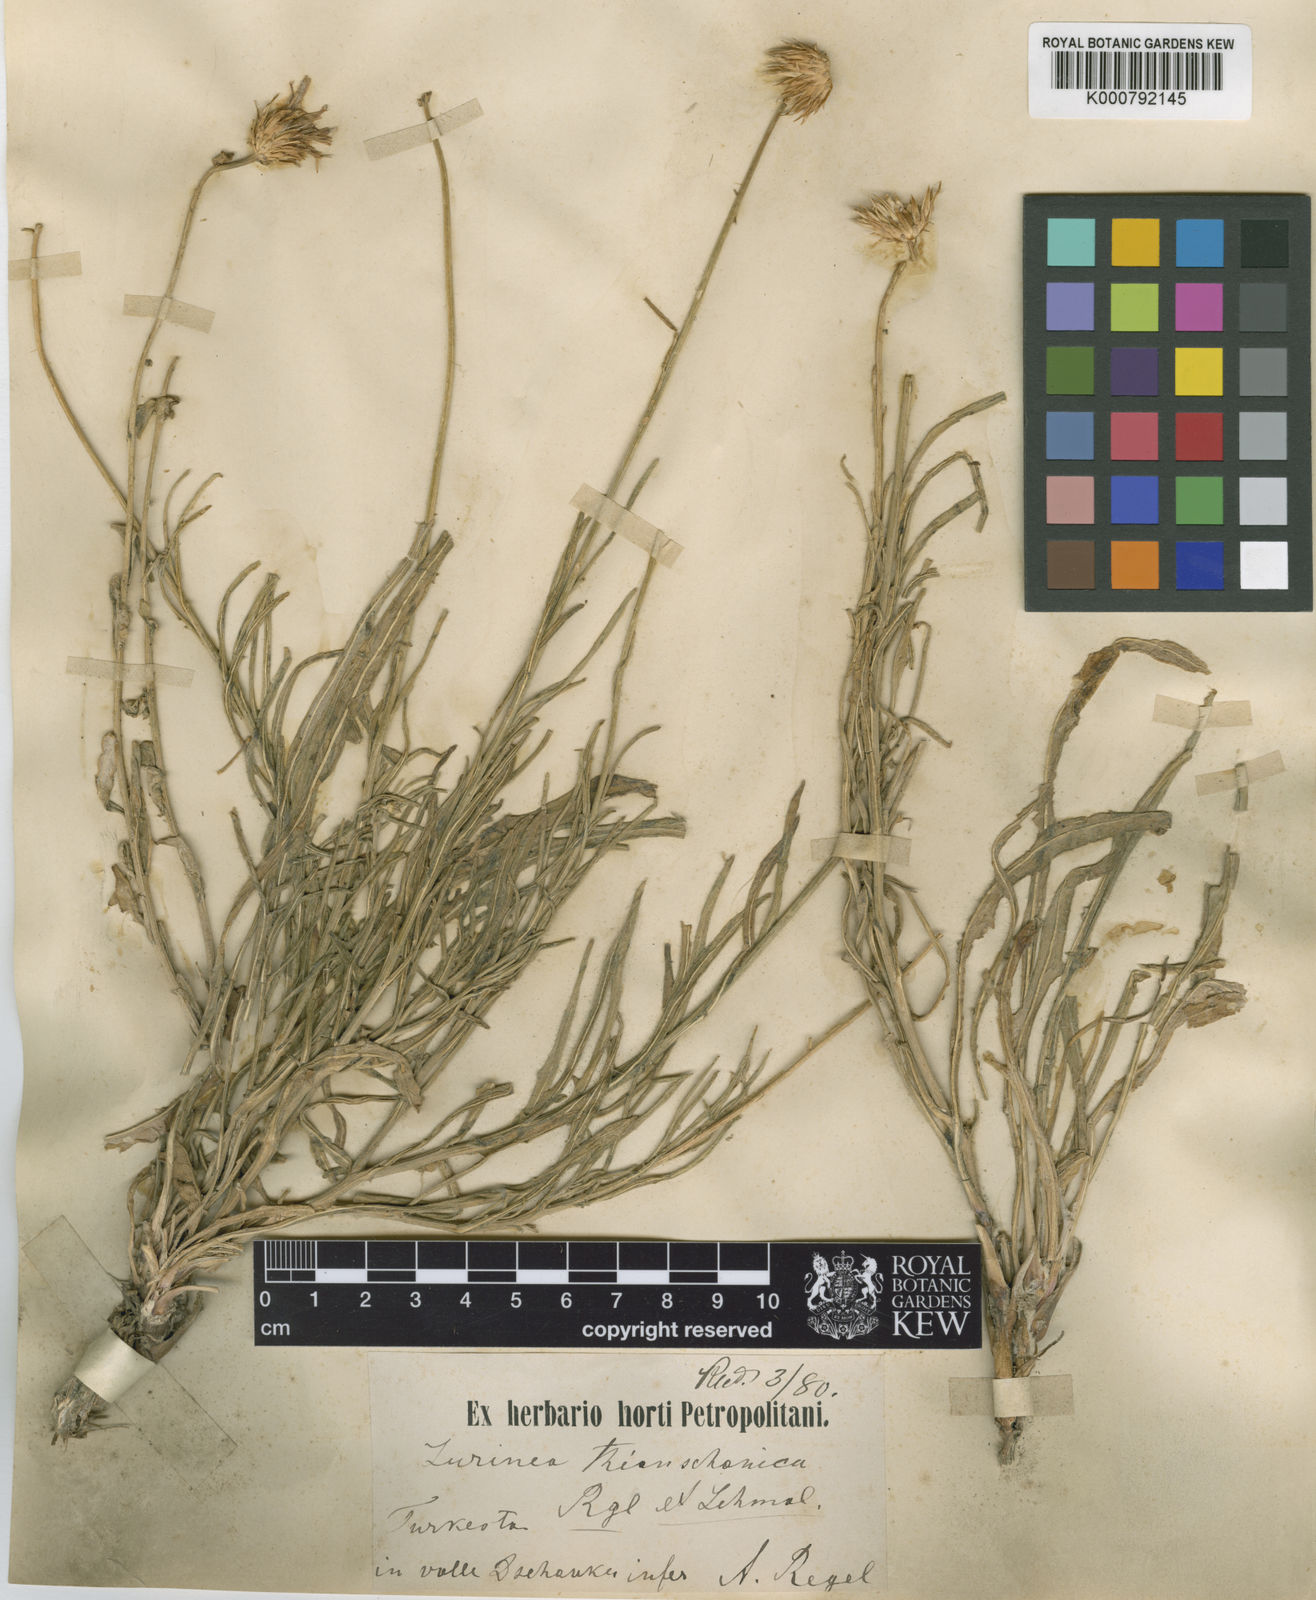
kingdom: Plantae
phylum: Tracheophyta
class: Magnoliopsida
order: Asterales
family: Asteraceae
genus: Jurinea
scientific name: Jurinea thianschanica
